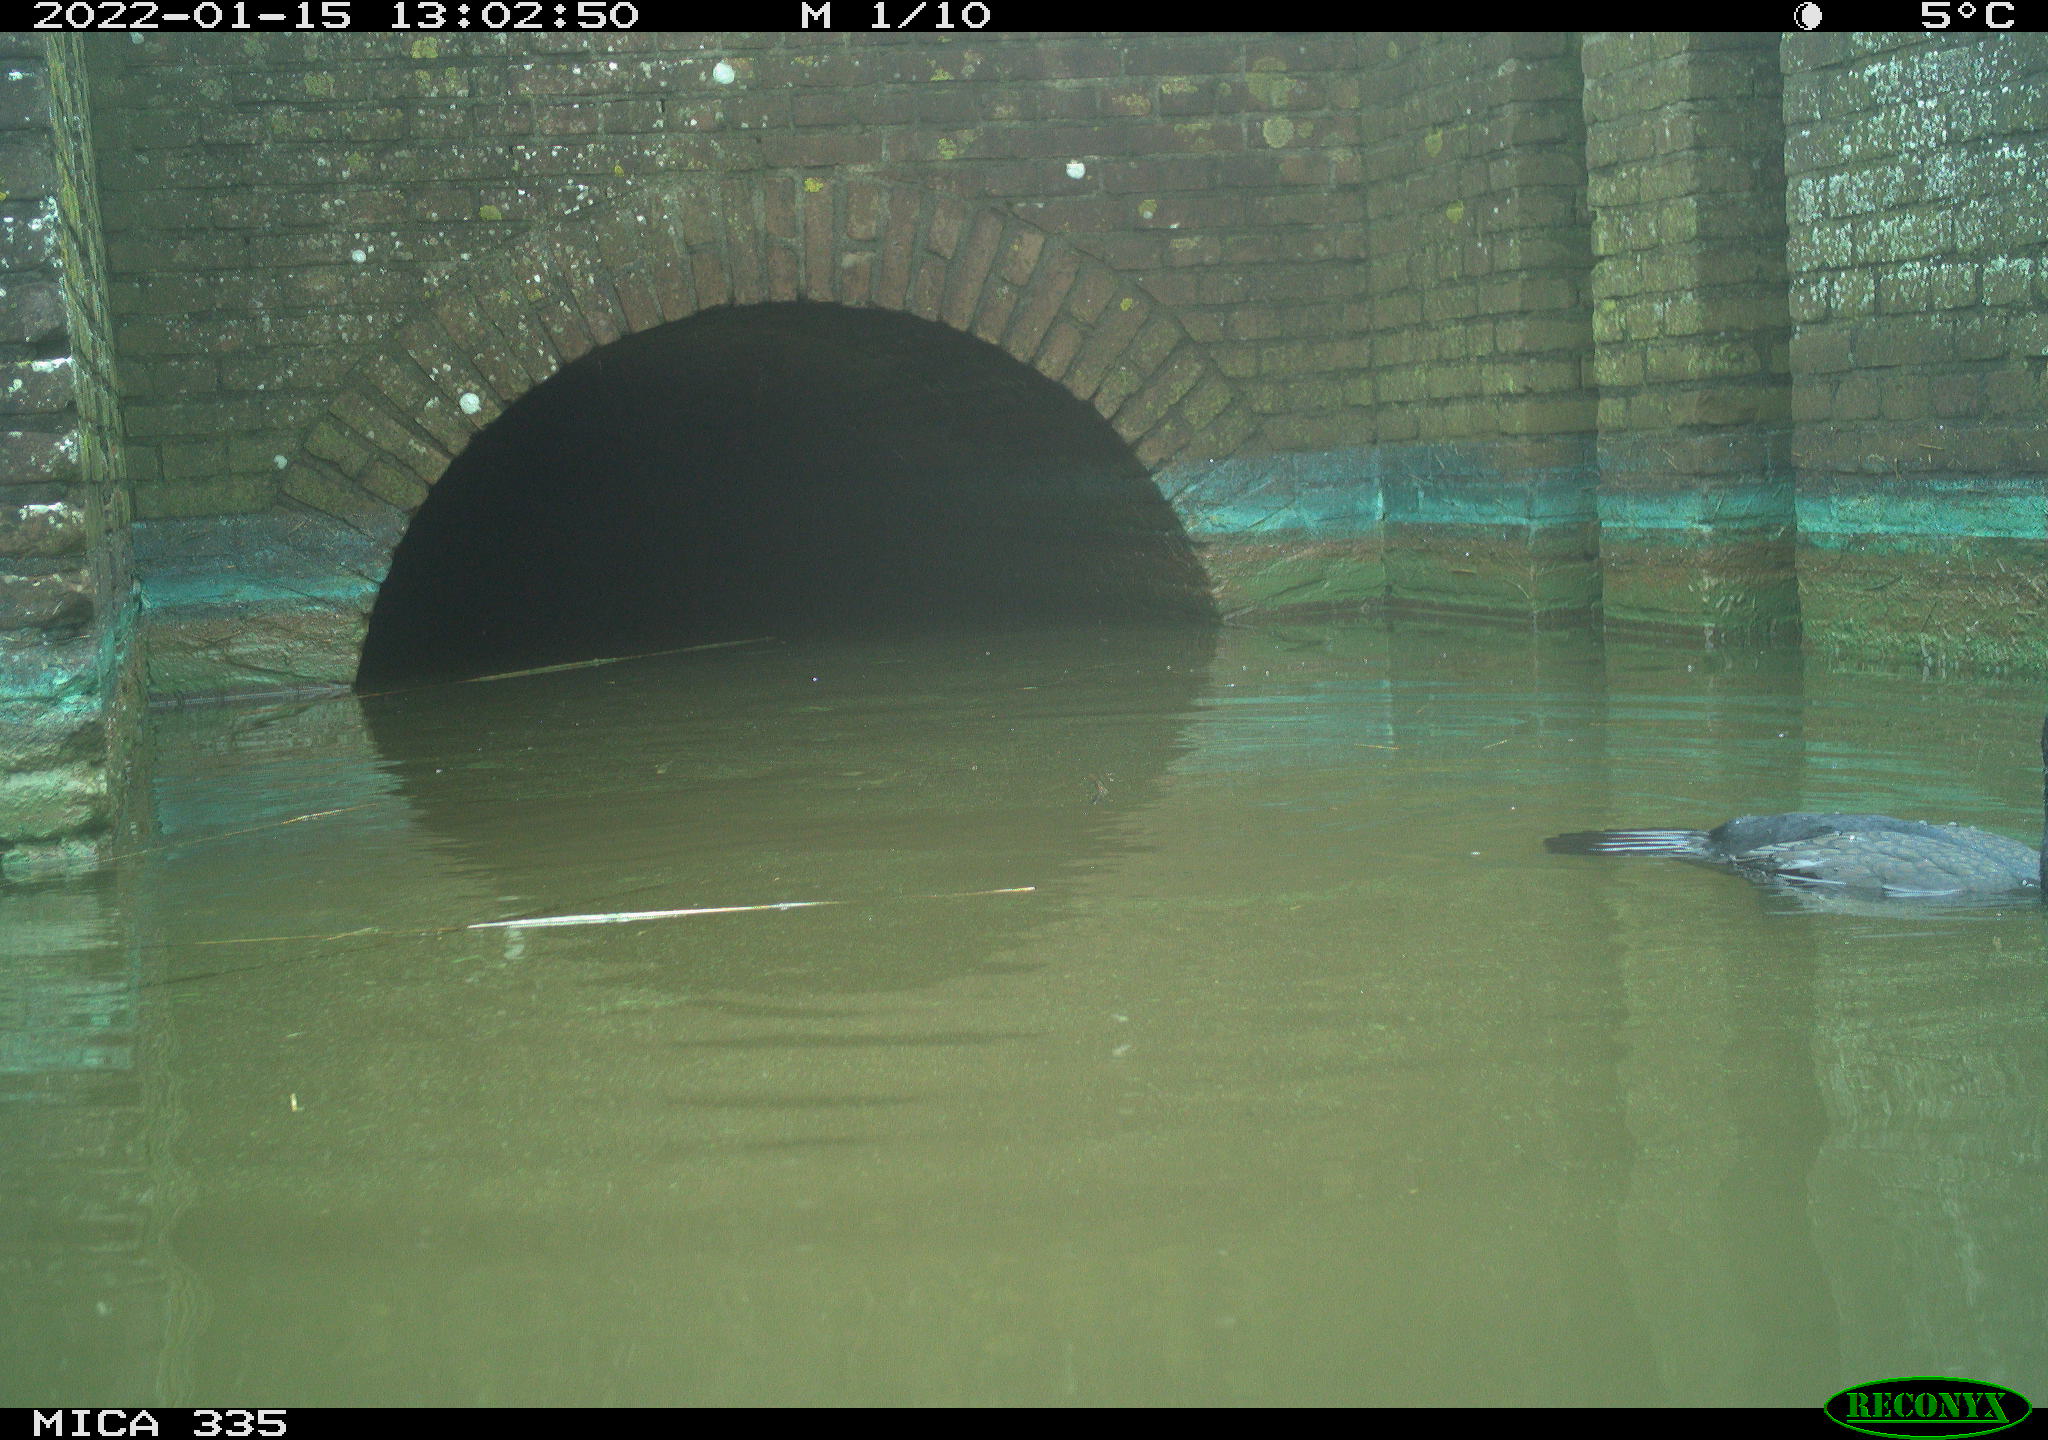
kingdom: Animalia
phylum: Chordata
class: Aves
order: Suliformes
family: Phalacrocoracidae
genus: Phalacrocorax
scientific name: Phalacrocorax carbo
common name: Great cormorant
